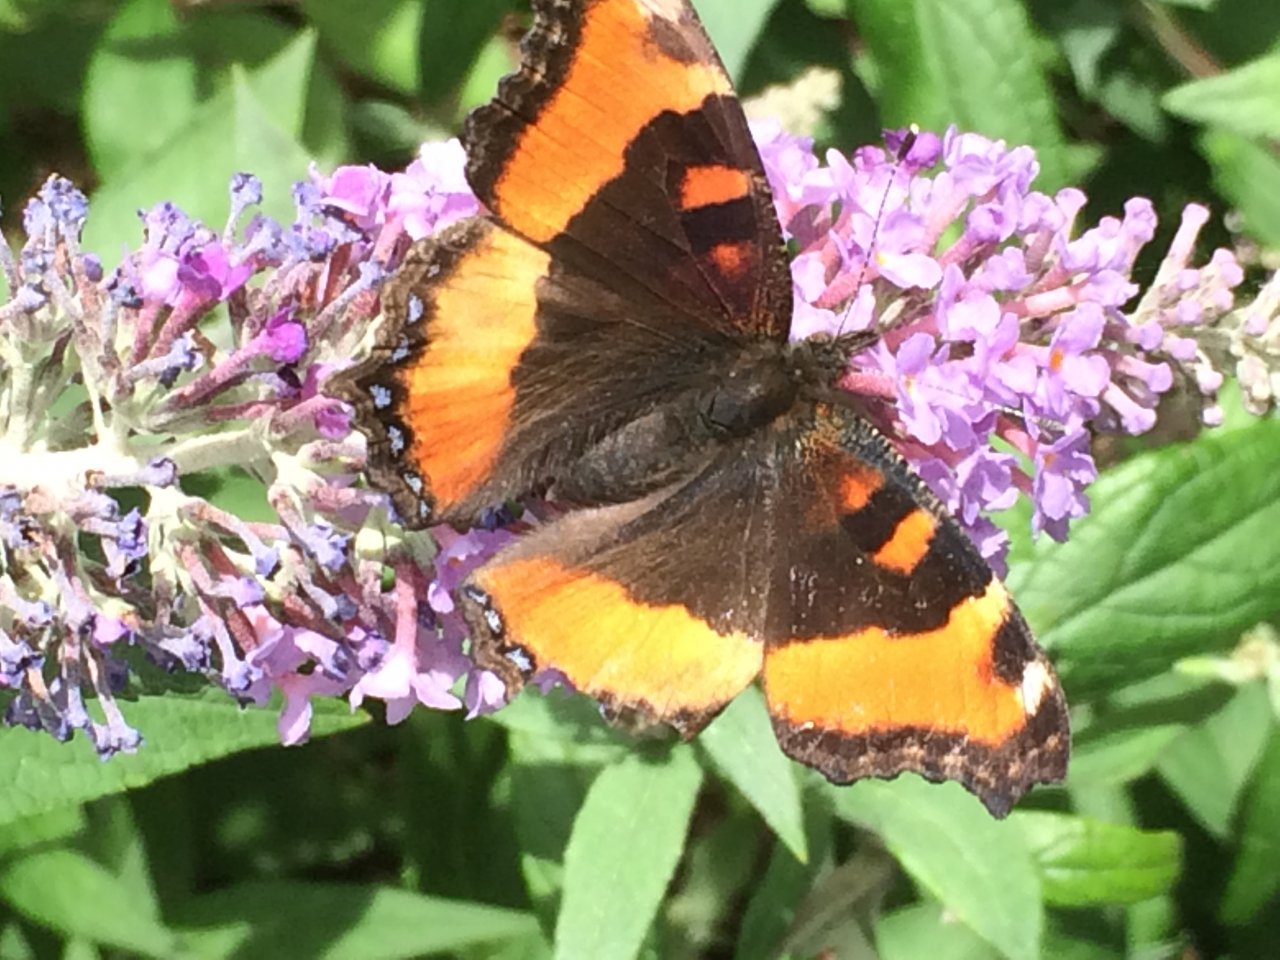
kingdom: Animalia
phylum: Arthropoda
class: Insecta
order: Lepidoptera
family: Nymphalidae
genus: Aglais
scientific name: Aglais milberti
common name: Milbert's Tortoiseshell
